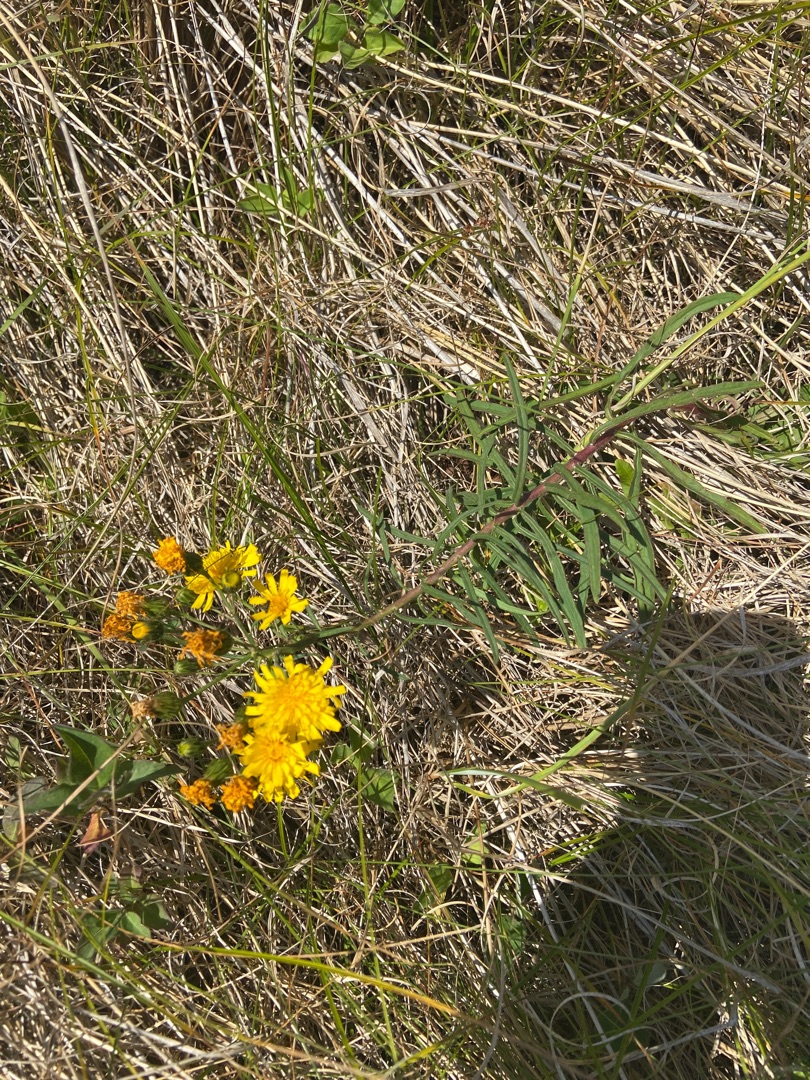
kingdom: Plantae
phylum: Tracheophyta
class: Magnoliopsida
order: Asterales
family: Asteraceae
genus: Hieracium
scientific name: Hieracium umbellatum
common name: Smalbladet høgeurt
